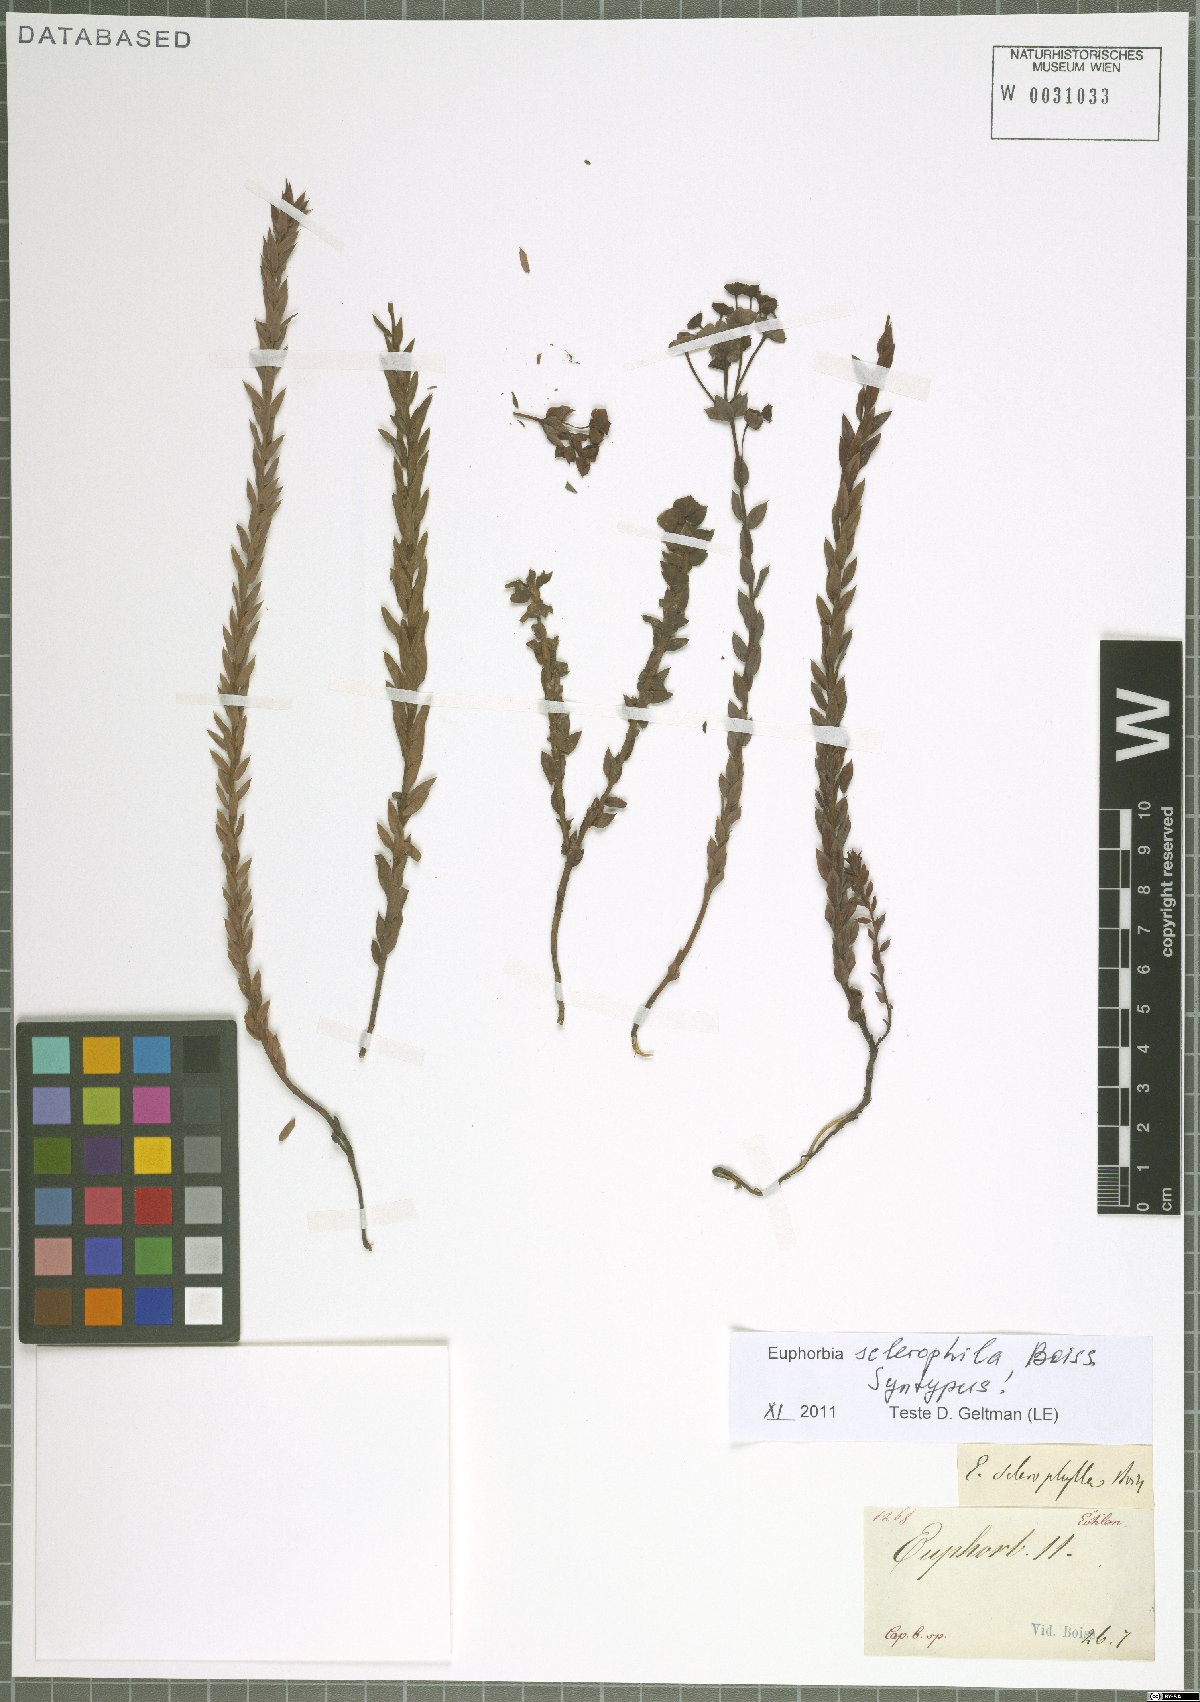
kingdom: Plantae
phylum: Tracheophyta
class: Magnoliopsida
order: Malpighiales
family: Euphorbiaceae
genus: Euphorbia
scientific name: Euphorbia sclerophylla
